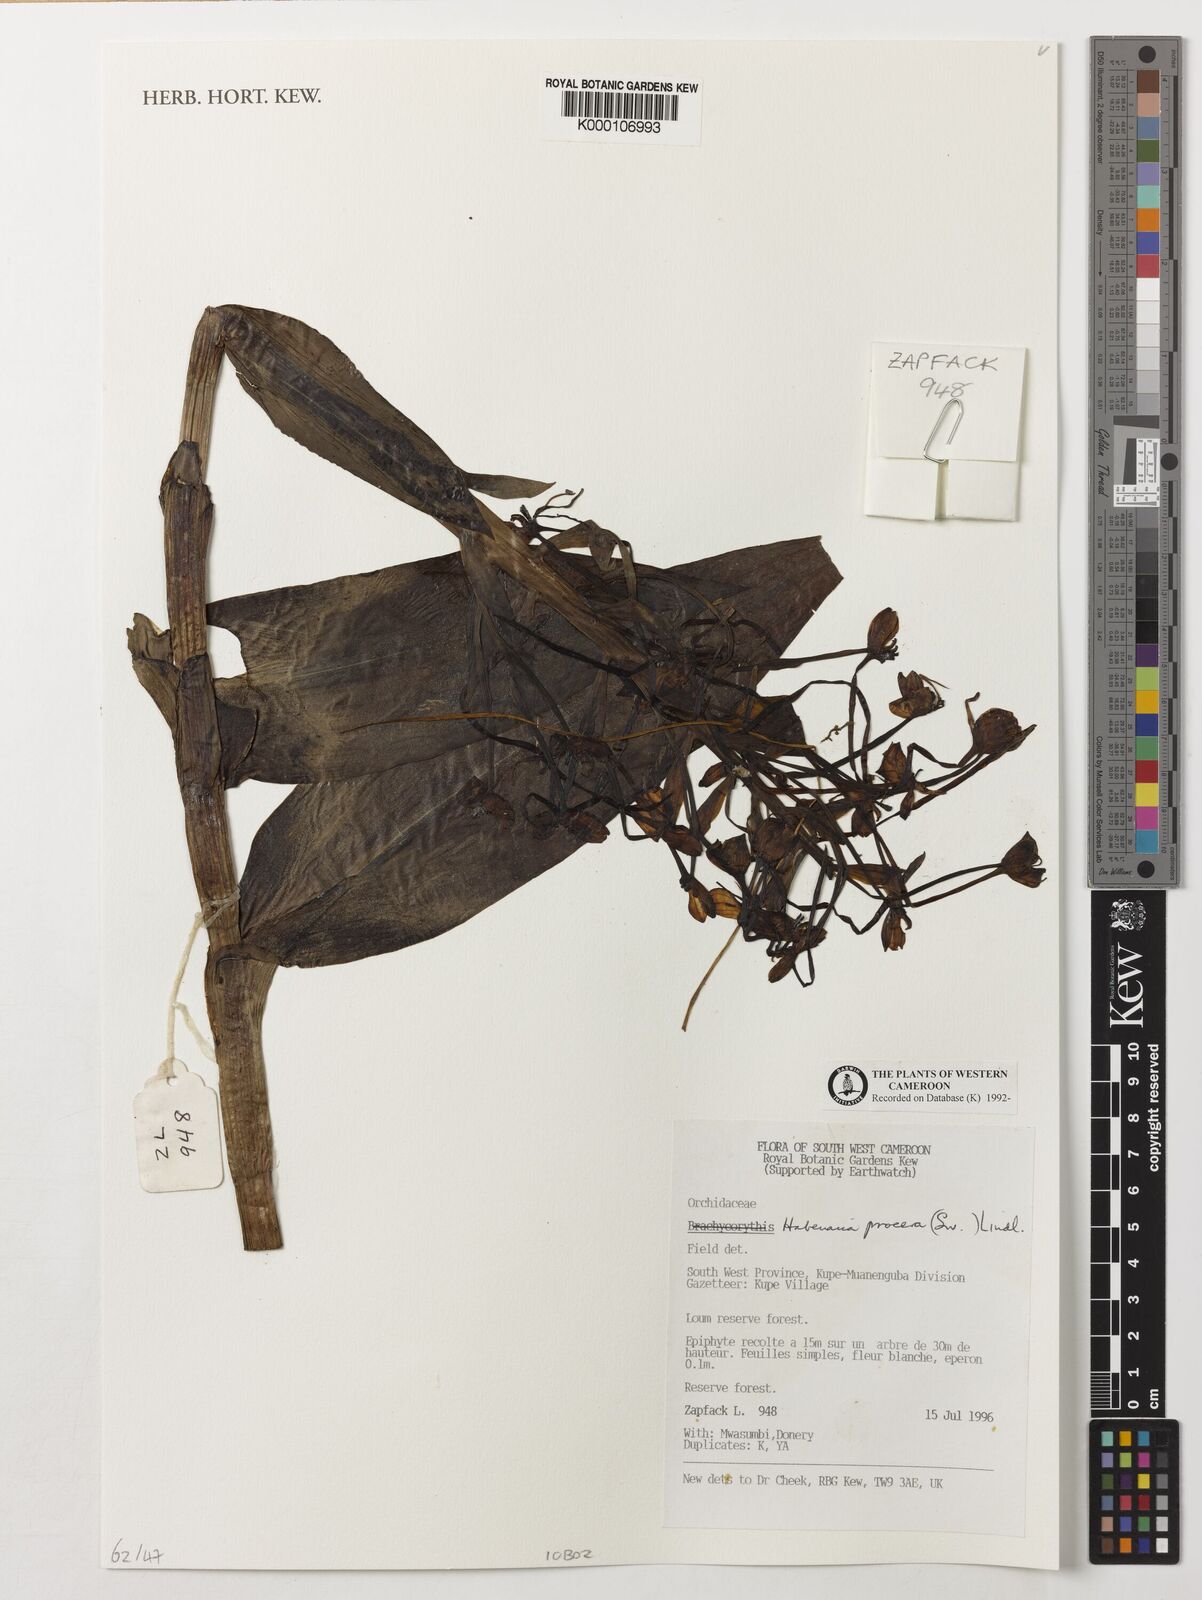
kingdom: Plantae
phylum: Tracheophyta
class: Liliopsida
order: Asparagales
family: Orchidaceae
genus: Habenaria
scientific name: Habenaria procera
